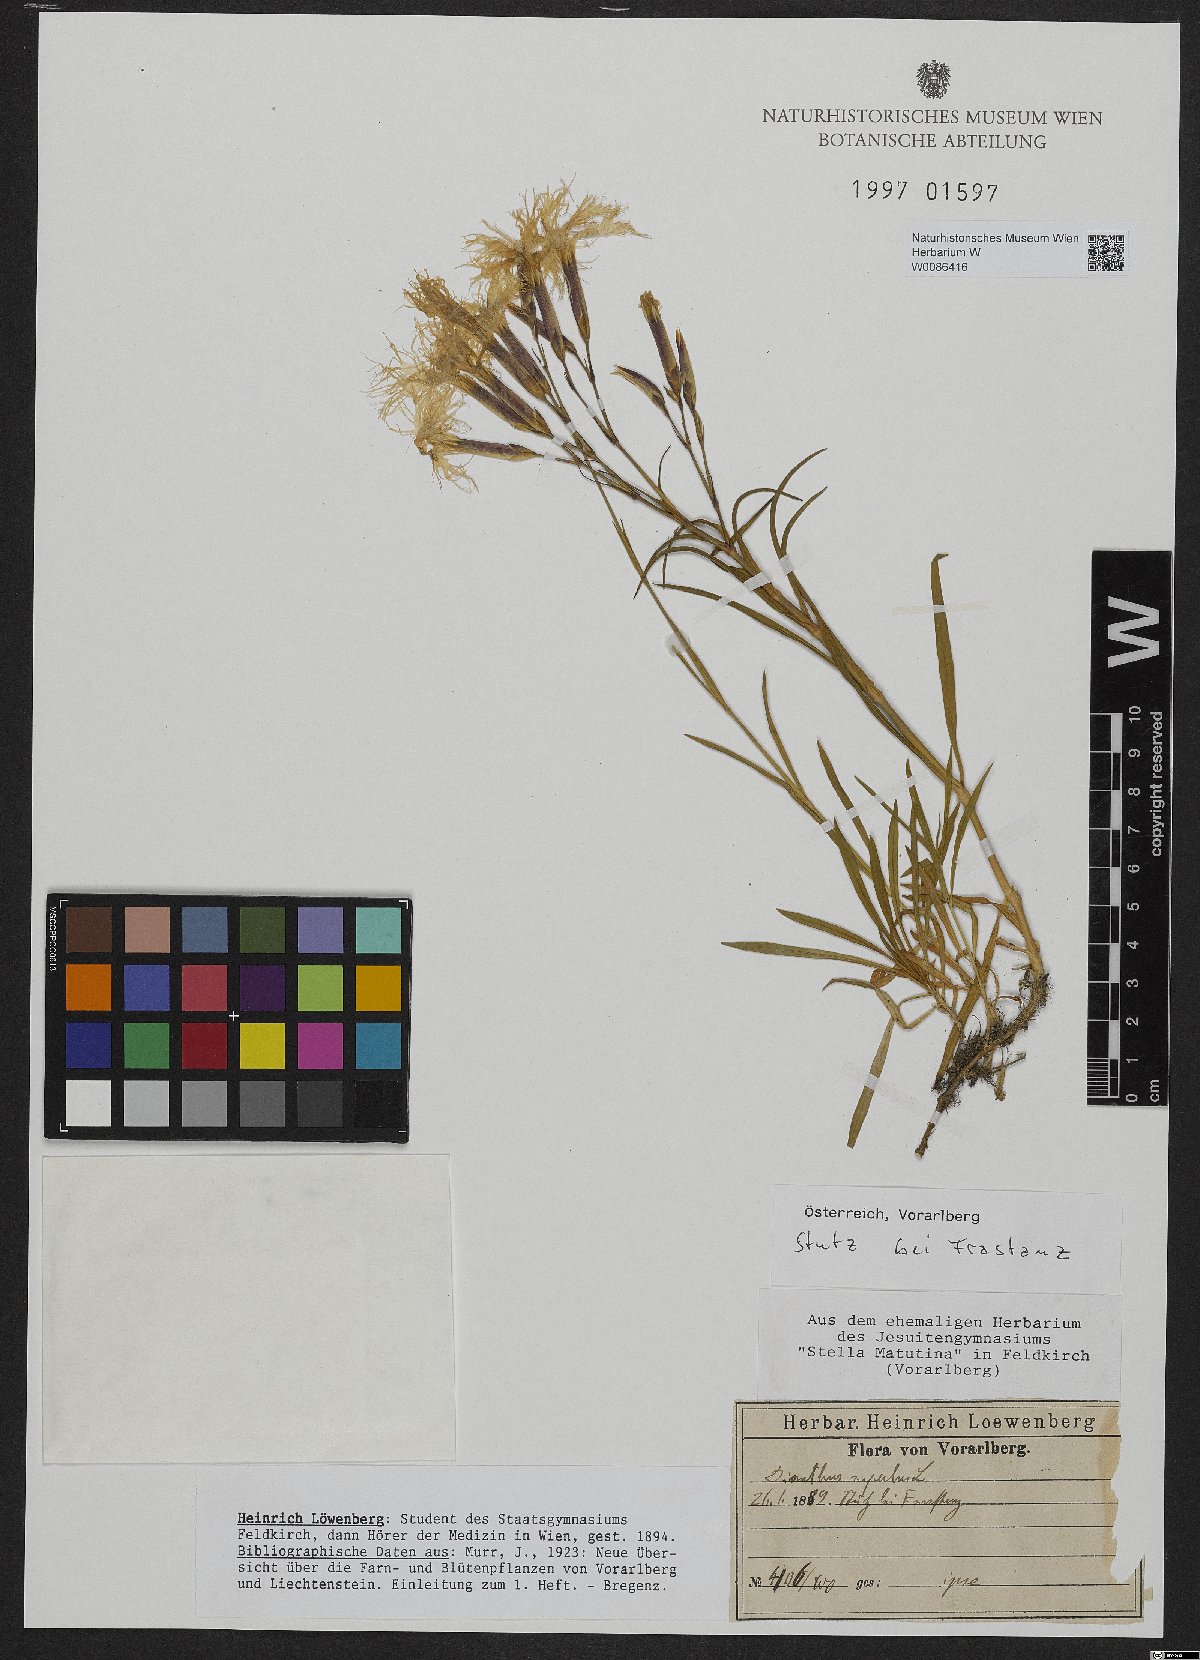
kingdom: Plantae
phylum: Tracheophyta
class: Magnoliopsida
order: Caryophyllales
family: Caryophyllaceae
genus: Dianthus
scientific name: Dianthus superbus
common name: Fringed pink
